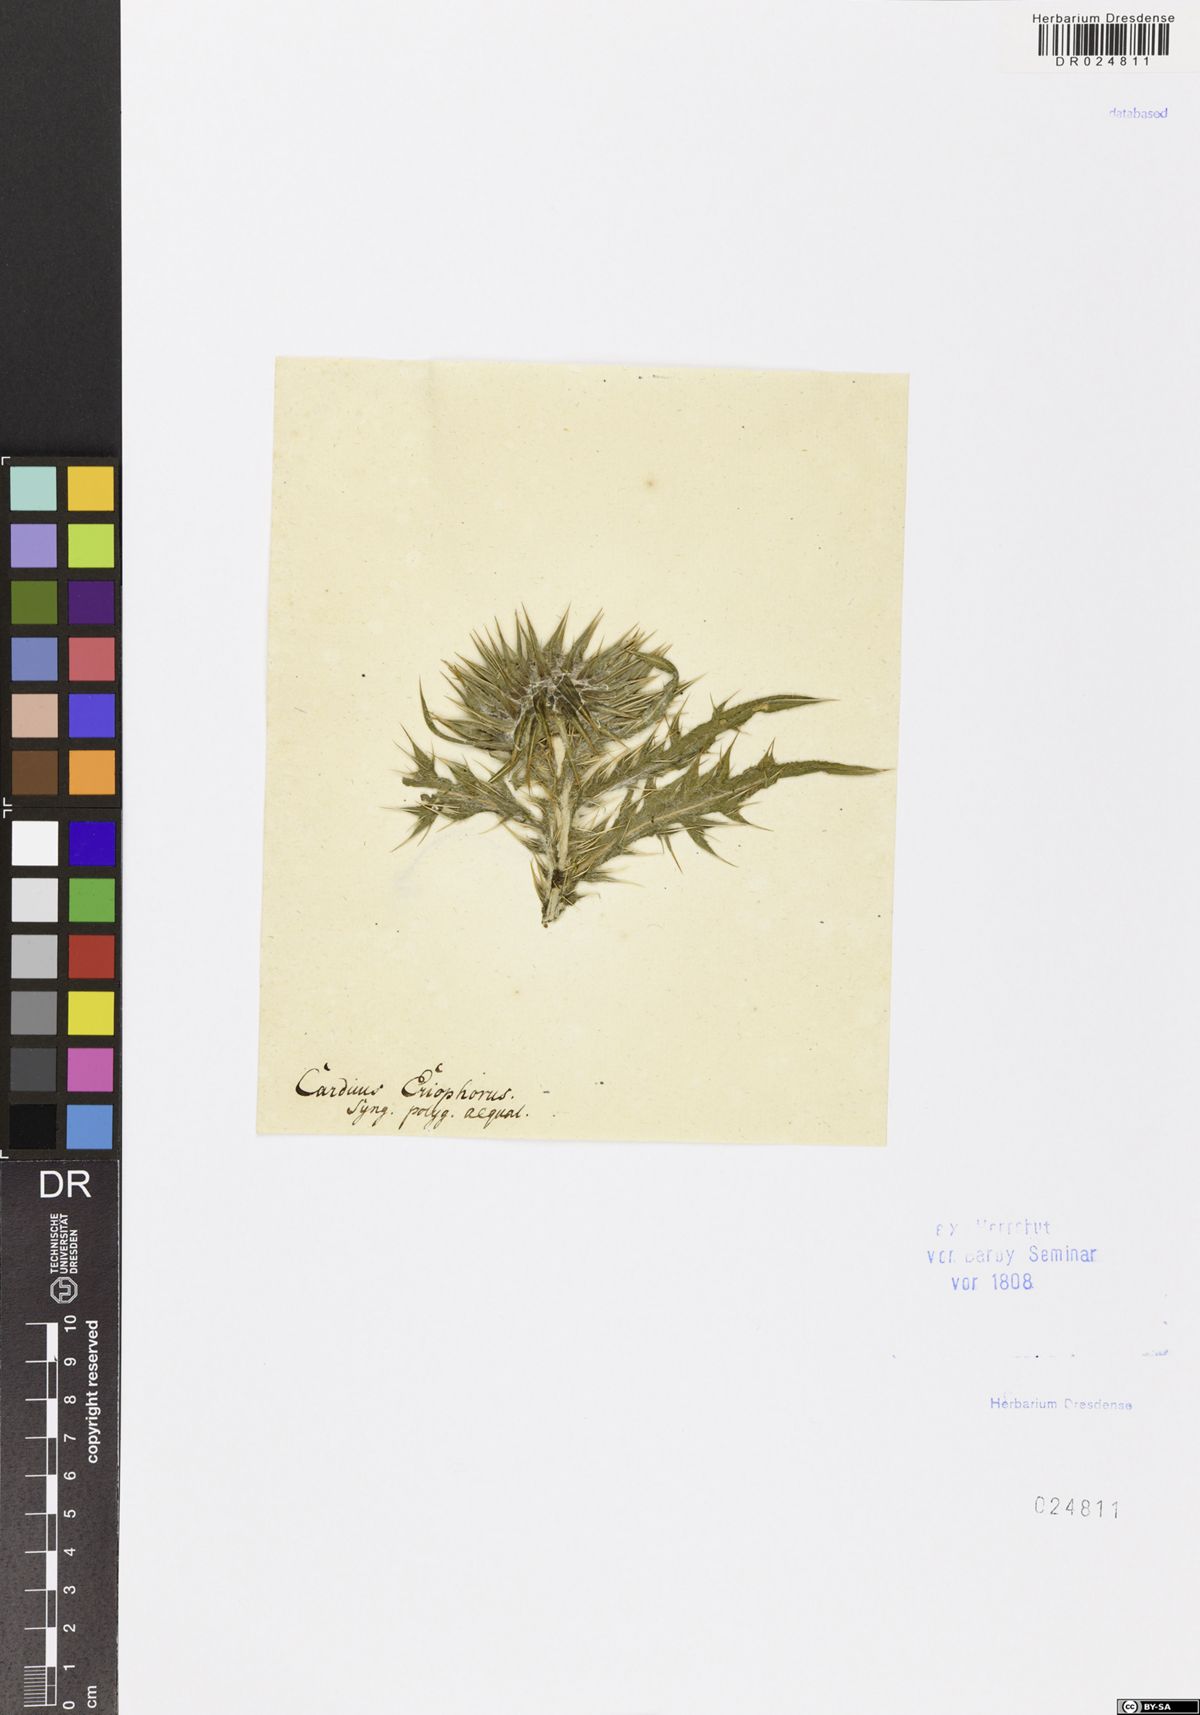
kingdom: Plantae
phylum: Tracheophyta
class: Magnoliopsida
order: Asterales
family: Asteraceae
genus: Lophiolepis
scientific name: Lophiolepis eriophora
